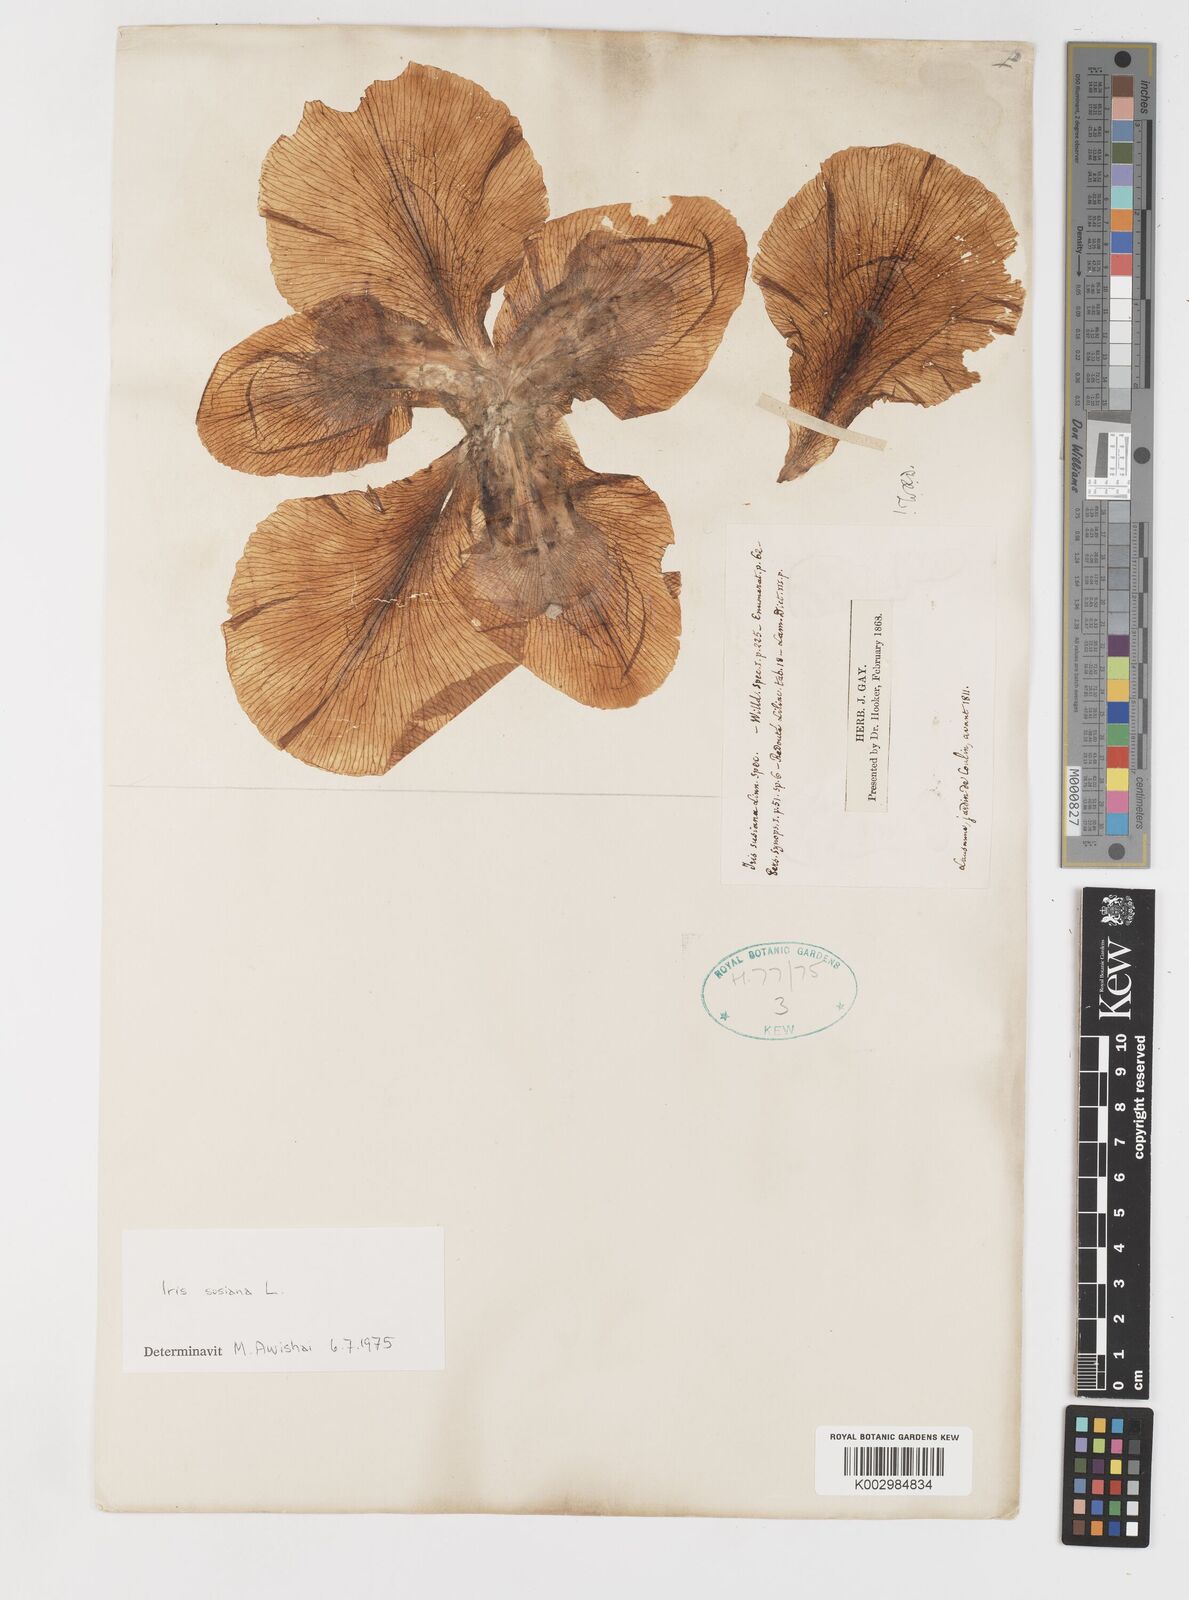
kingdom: Plantae
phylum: Tracheophyta
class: Liliopsida
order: Asparagales
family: Iridaceae
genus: Iris
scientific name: Iris susiana
